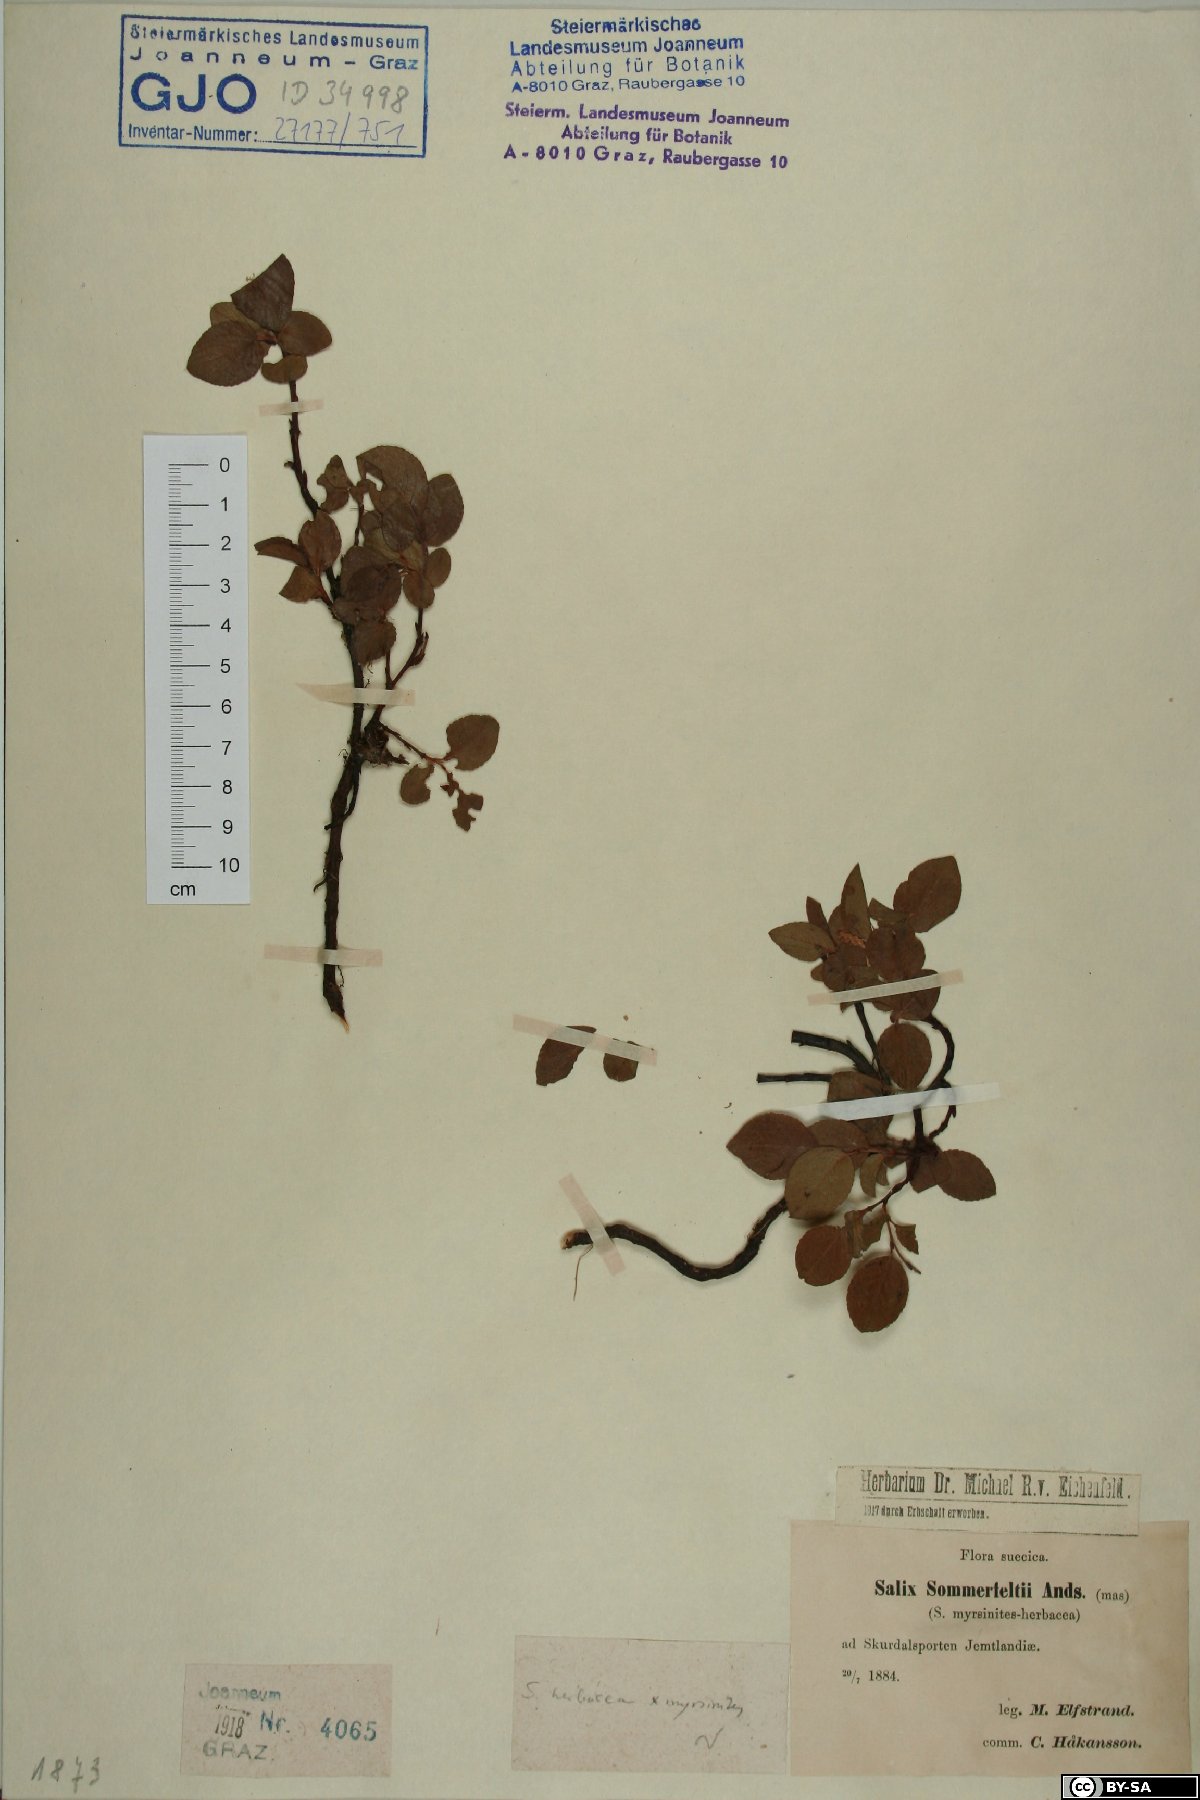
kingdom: Plantae
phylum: Tracheophyta
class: Magnoliopsida
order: Malpighiales
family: Salicaceae
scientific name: Salicaceae
